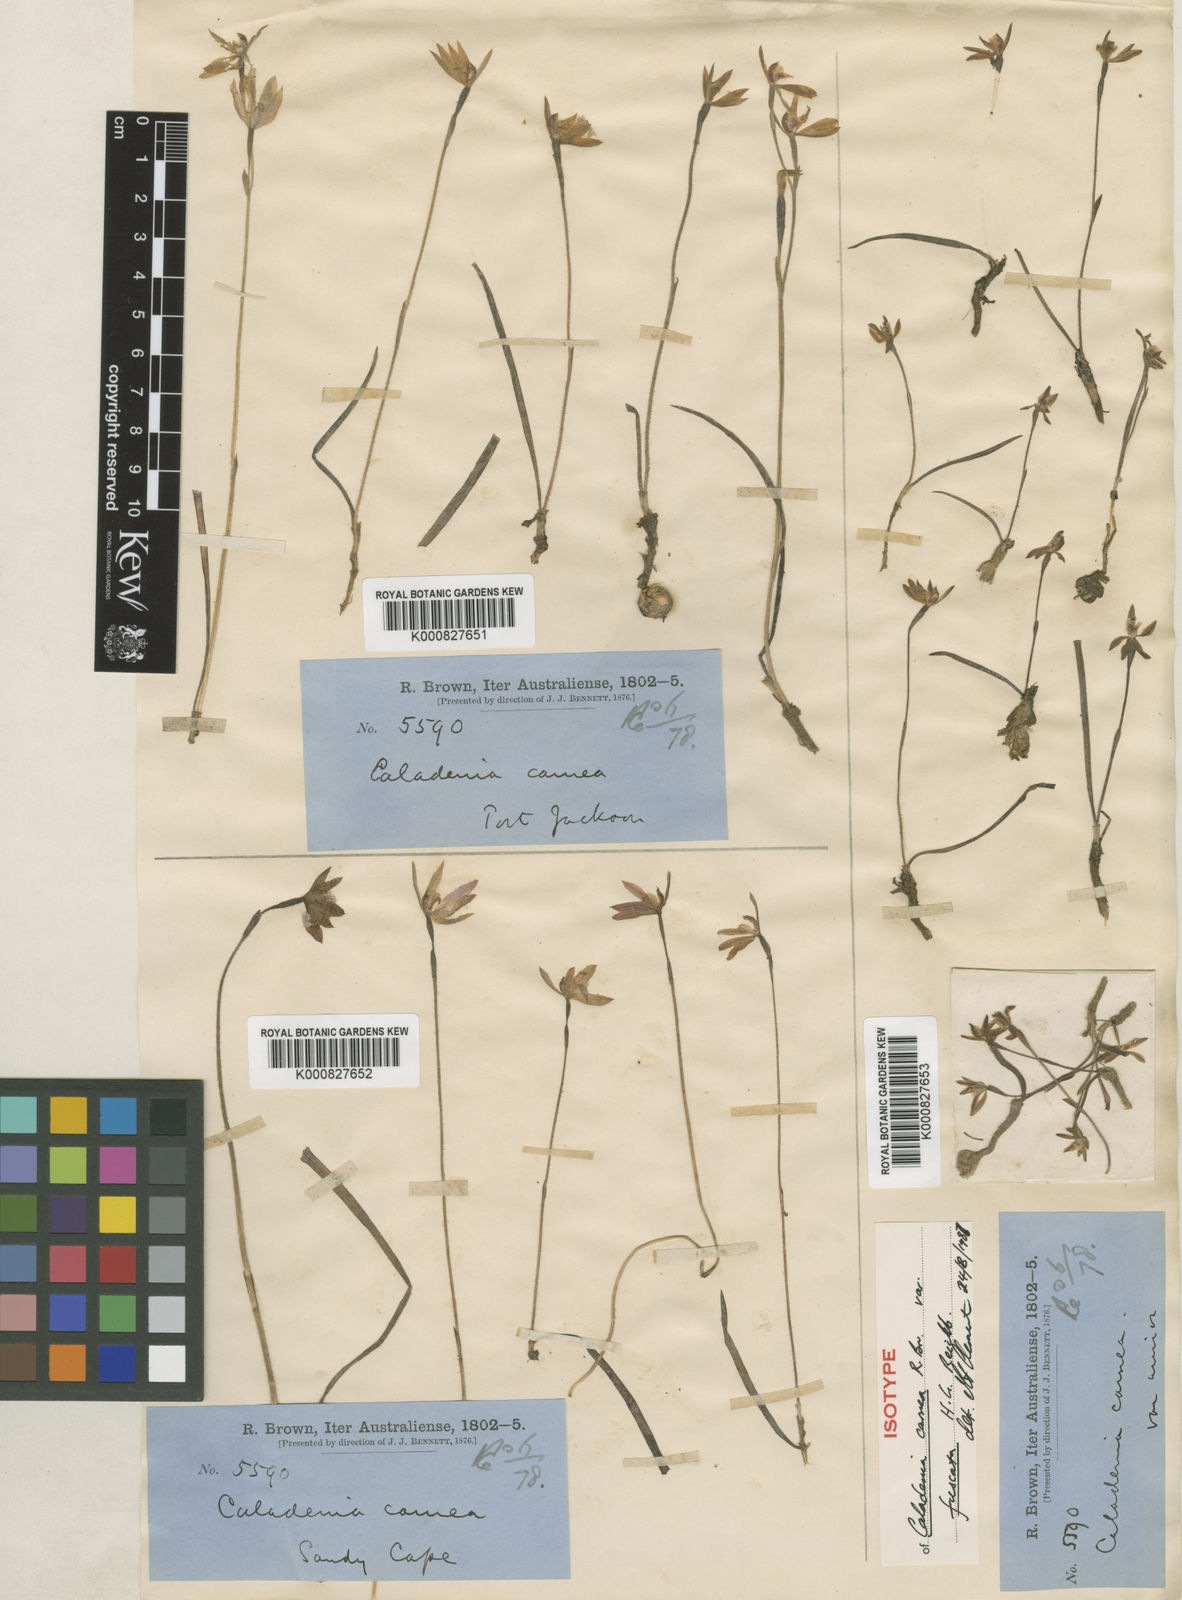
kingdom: Plantae
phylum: Tracheophyta
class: Liliopsida
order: Asparagales
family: Orchidaceae
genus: Caladenia
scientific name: Caladenia carnea
